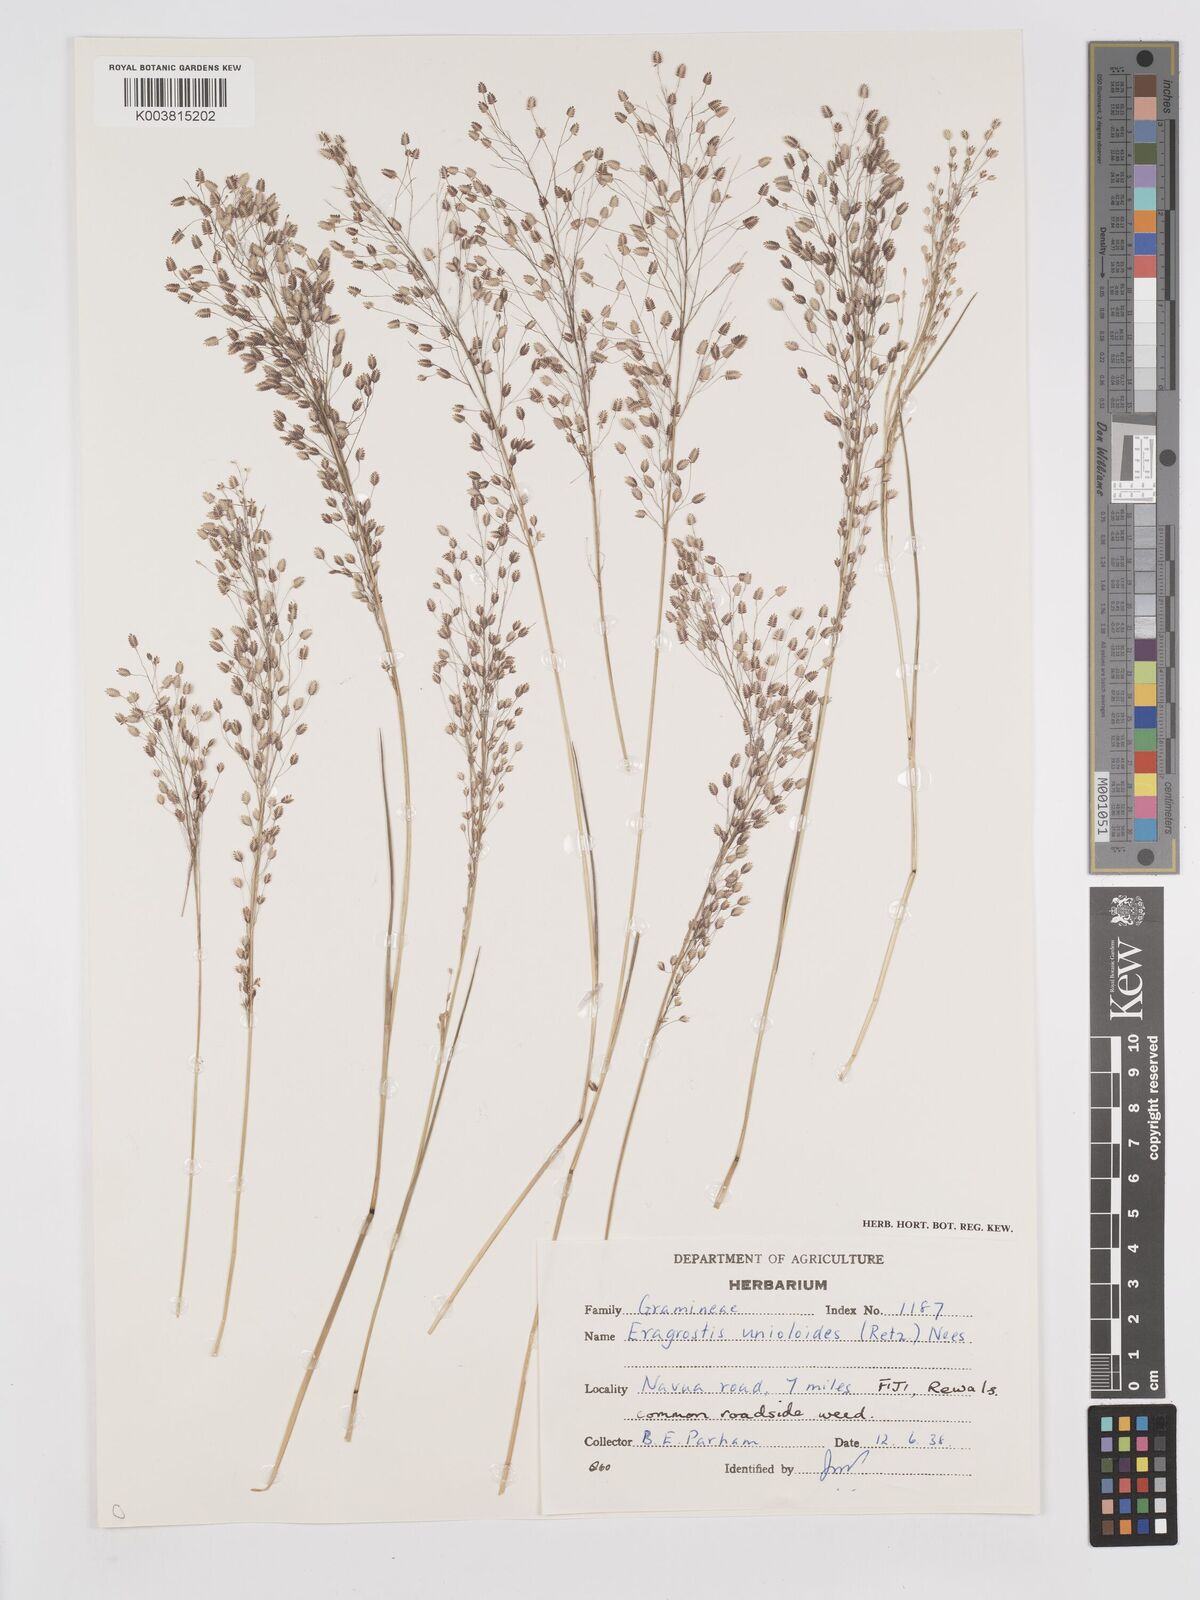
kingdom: Plantae
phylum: Tracheophyta
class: Liliopsida
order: Poales
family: Poaceae
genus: Eragrostis
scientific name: Eragrostis unioloides
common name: Chinese lovegrass
